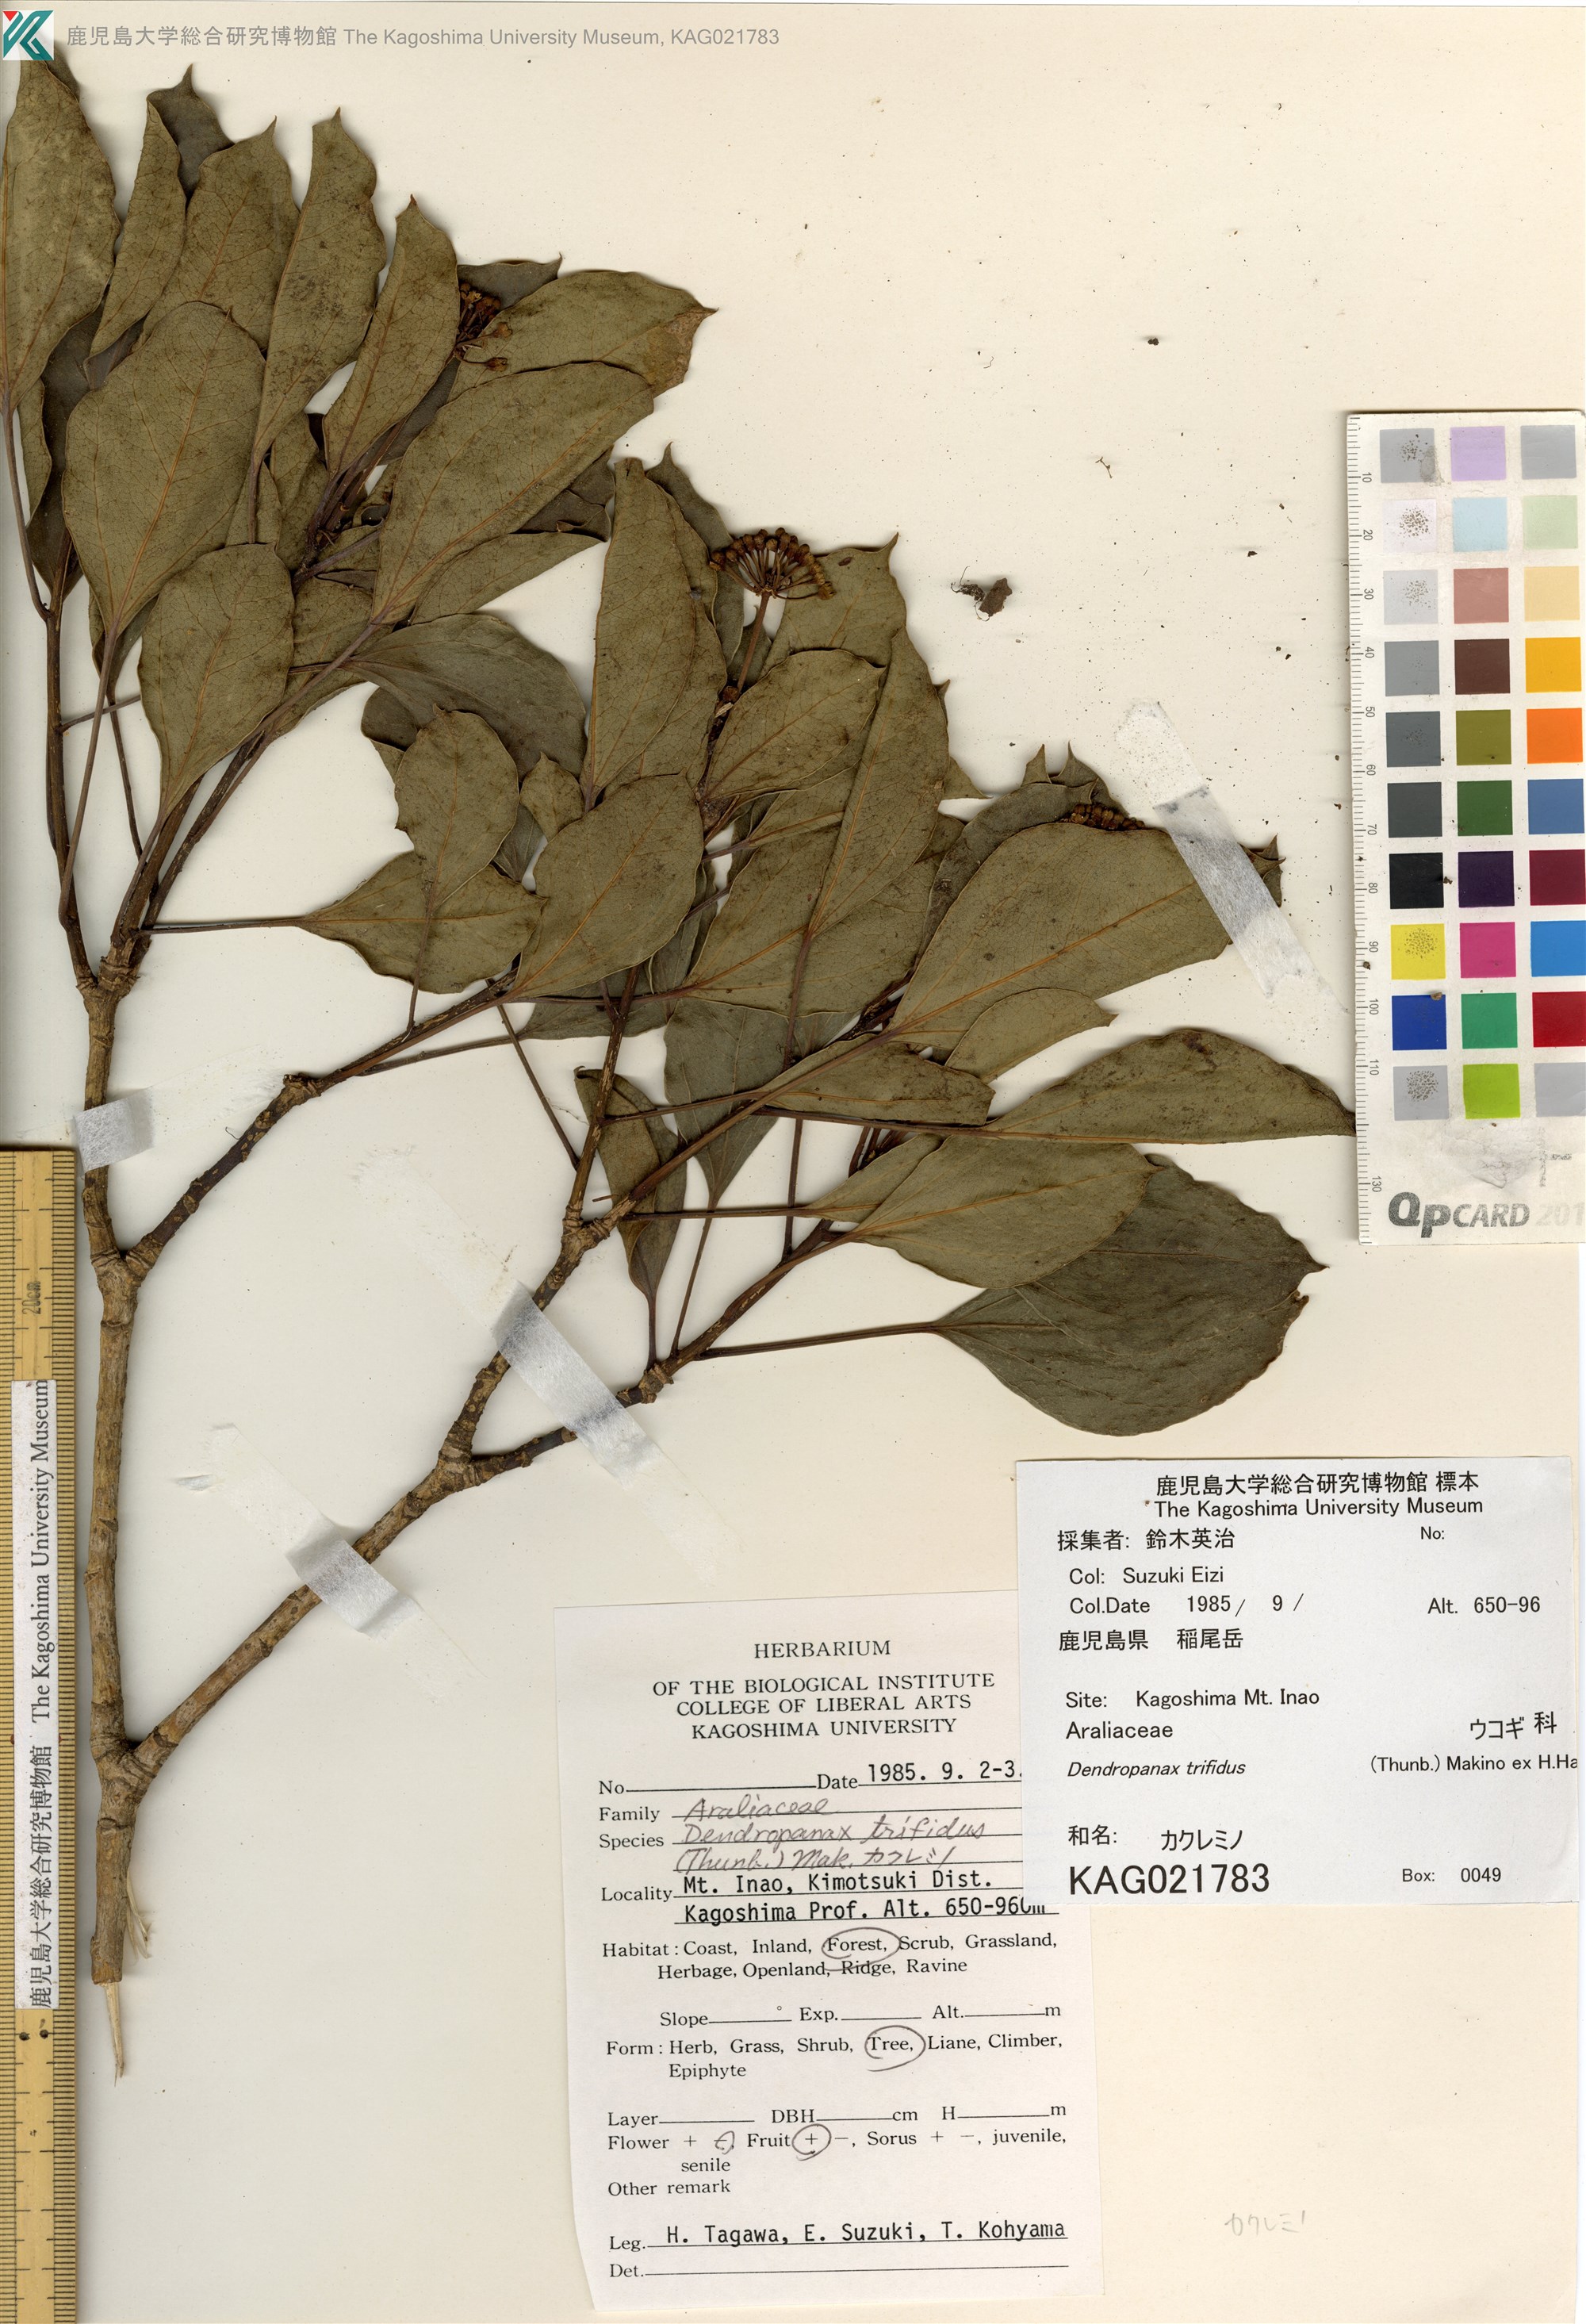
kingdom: Plantae
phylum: Tracheophyta
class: Magnoliopsida
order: Apiales
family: Araliaceae
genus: Dendropanax
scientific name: Dendropanax trifidus
